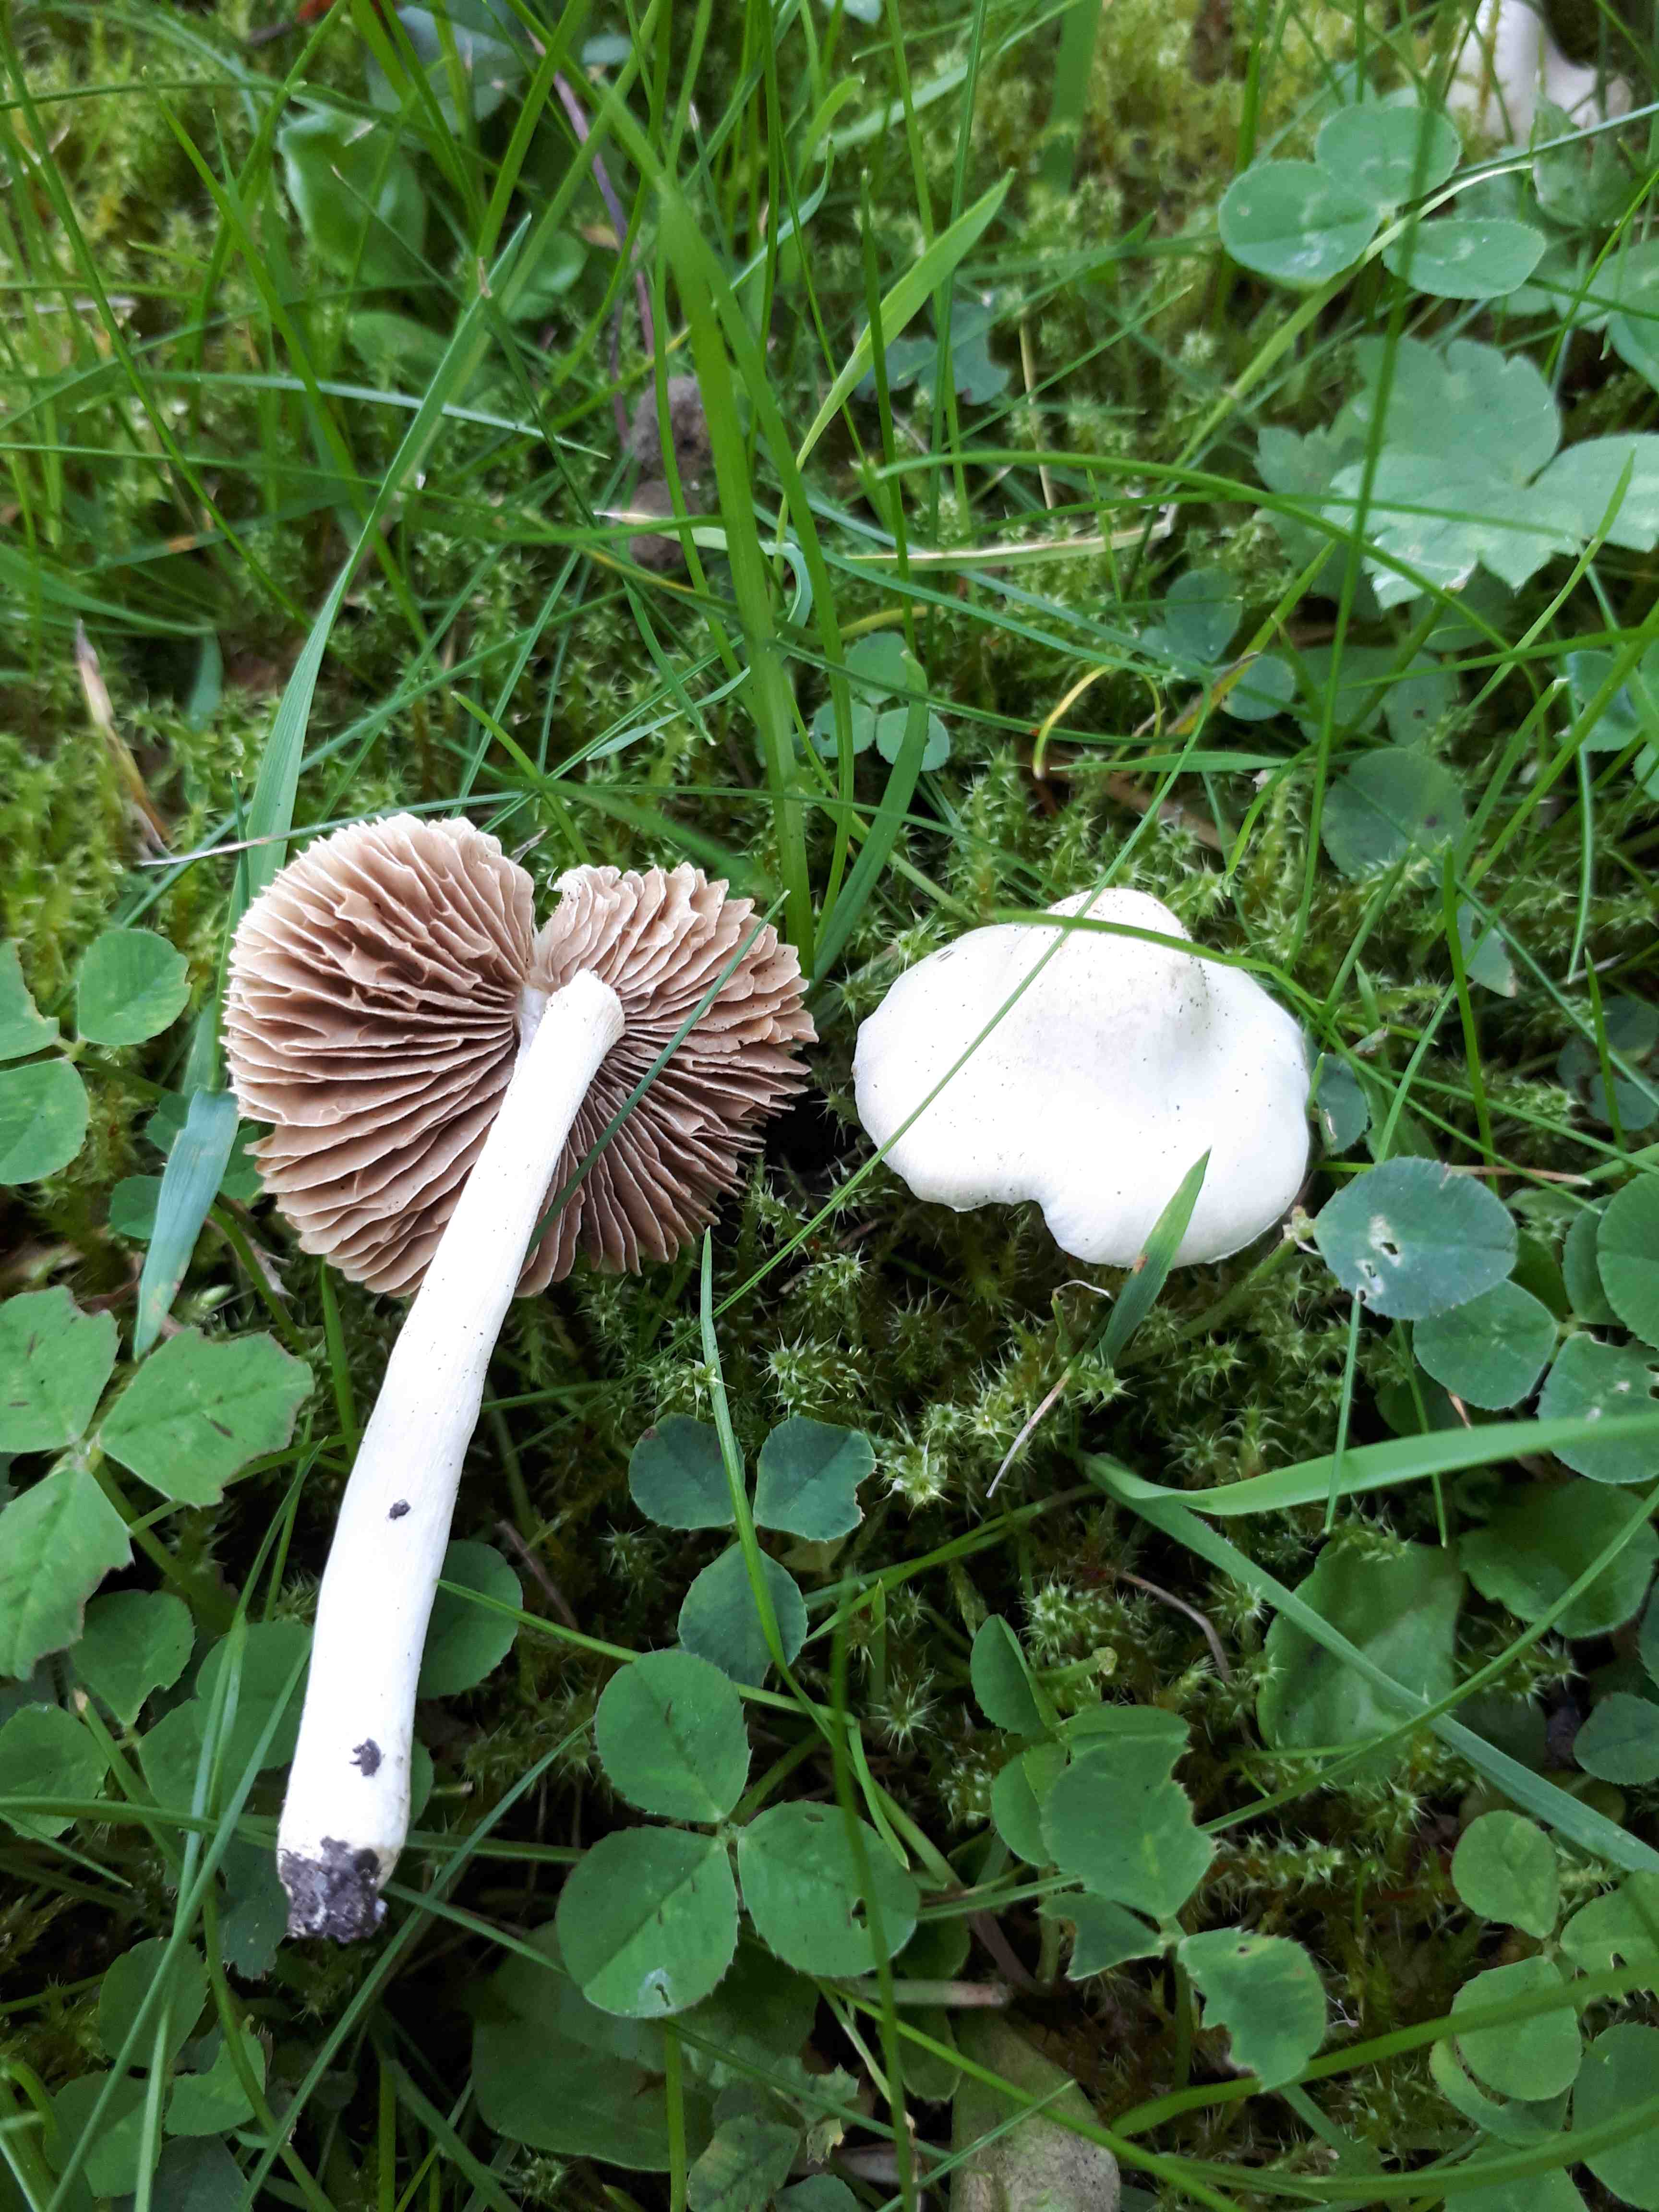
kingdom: Fungi
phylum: Basidiomycota
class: Agaricomycetes
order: Agaricales
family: Inocybaceae
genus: Inocybe
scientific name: Inocybe
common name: almindelig trævlhat
